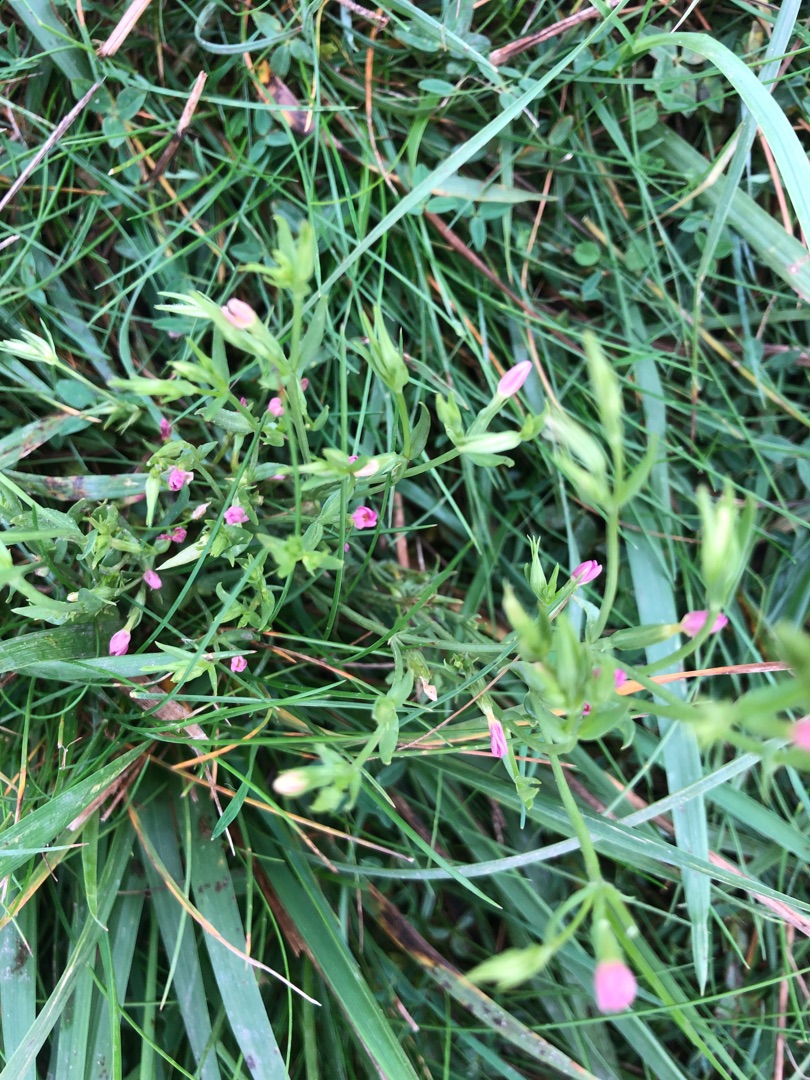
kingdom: Plantae
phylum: Tracheophyta
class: Magnoliopsida
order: Gentianales
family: Gentianaceae
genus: Centaurium
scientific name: Centaurium erythraea
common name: Mark-tusindgylden
